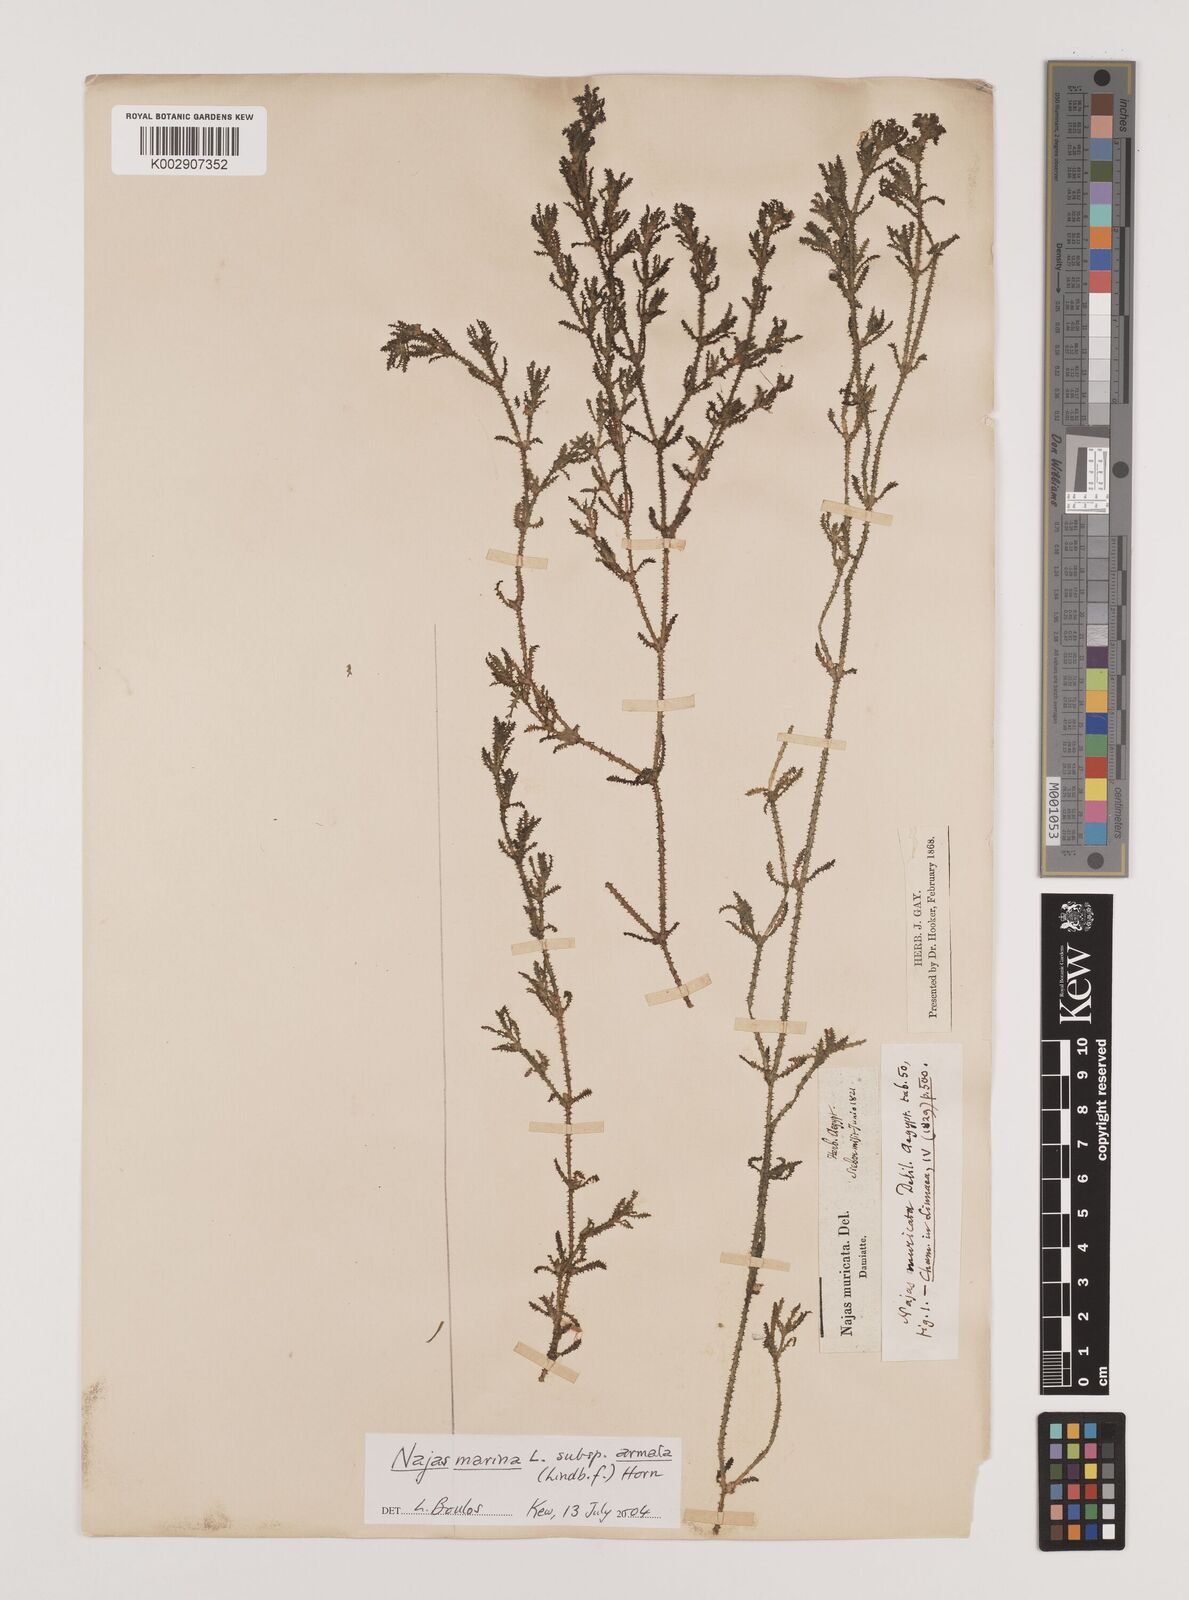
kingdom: Plantae
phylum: Tracheophyta
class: Liliopsida
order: Alismatales
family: Hydrocharitaceae
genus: Najas
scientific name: Najas marina
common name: Holly-leaved naiad
